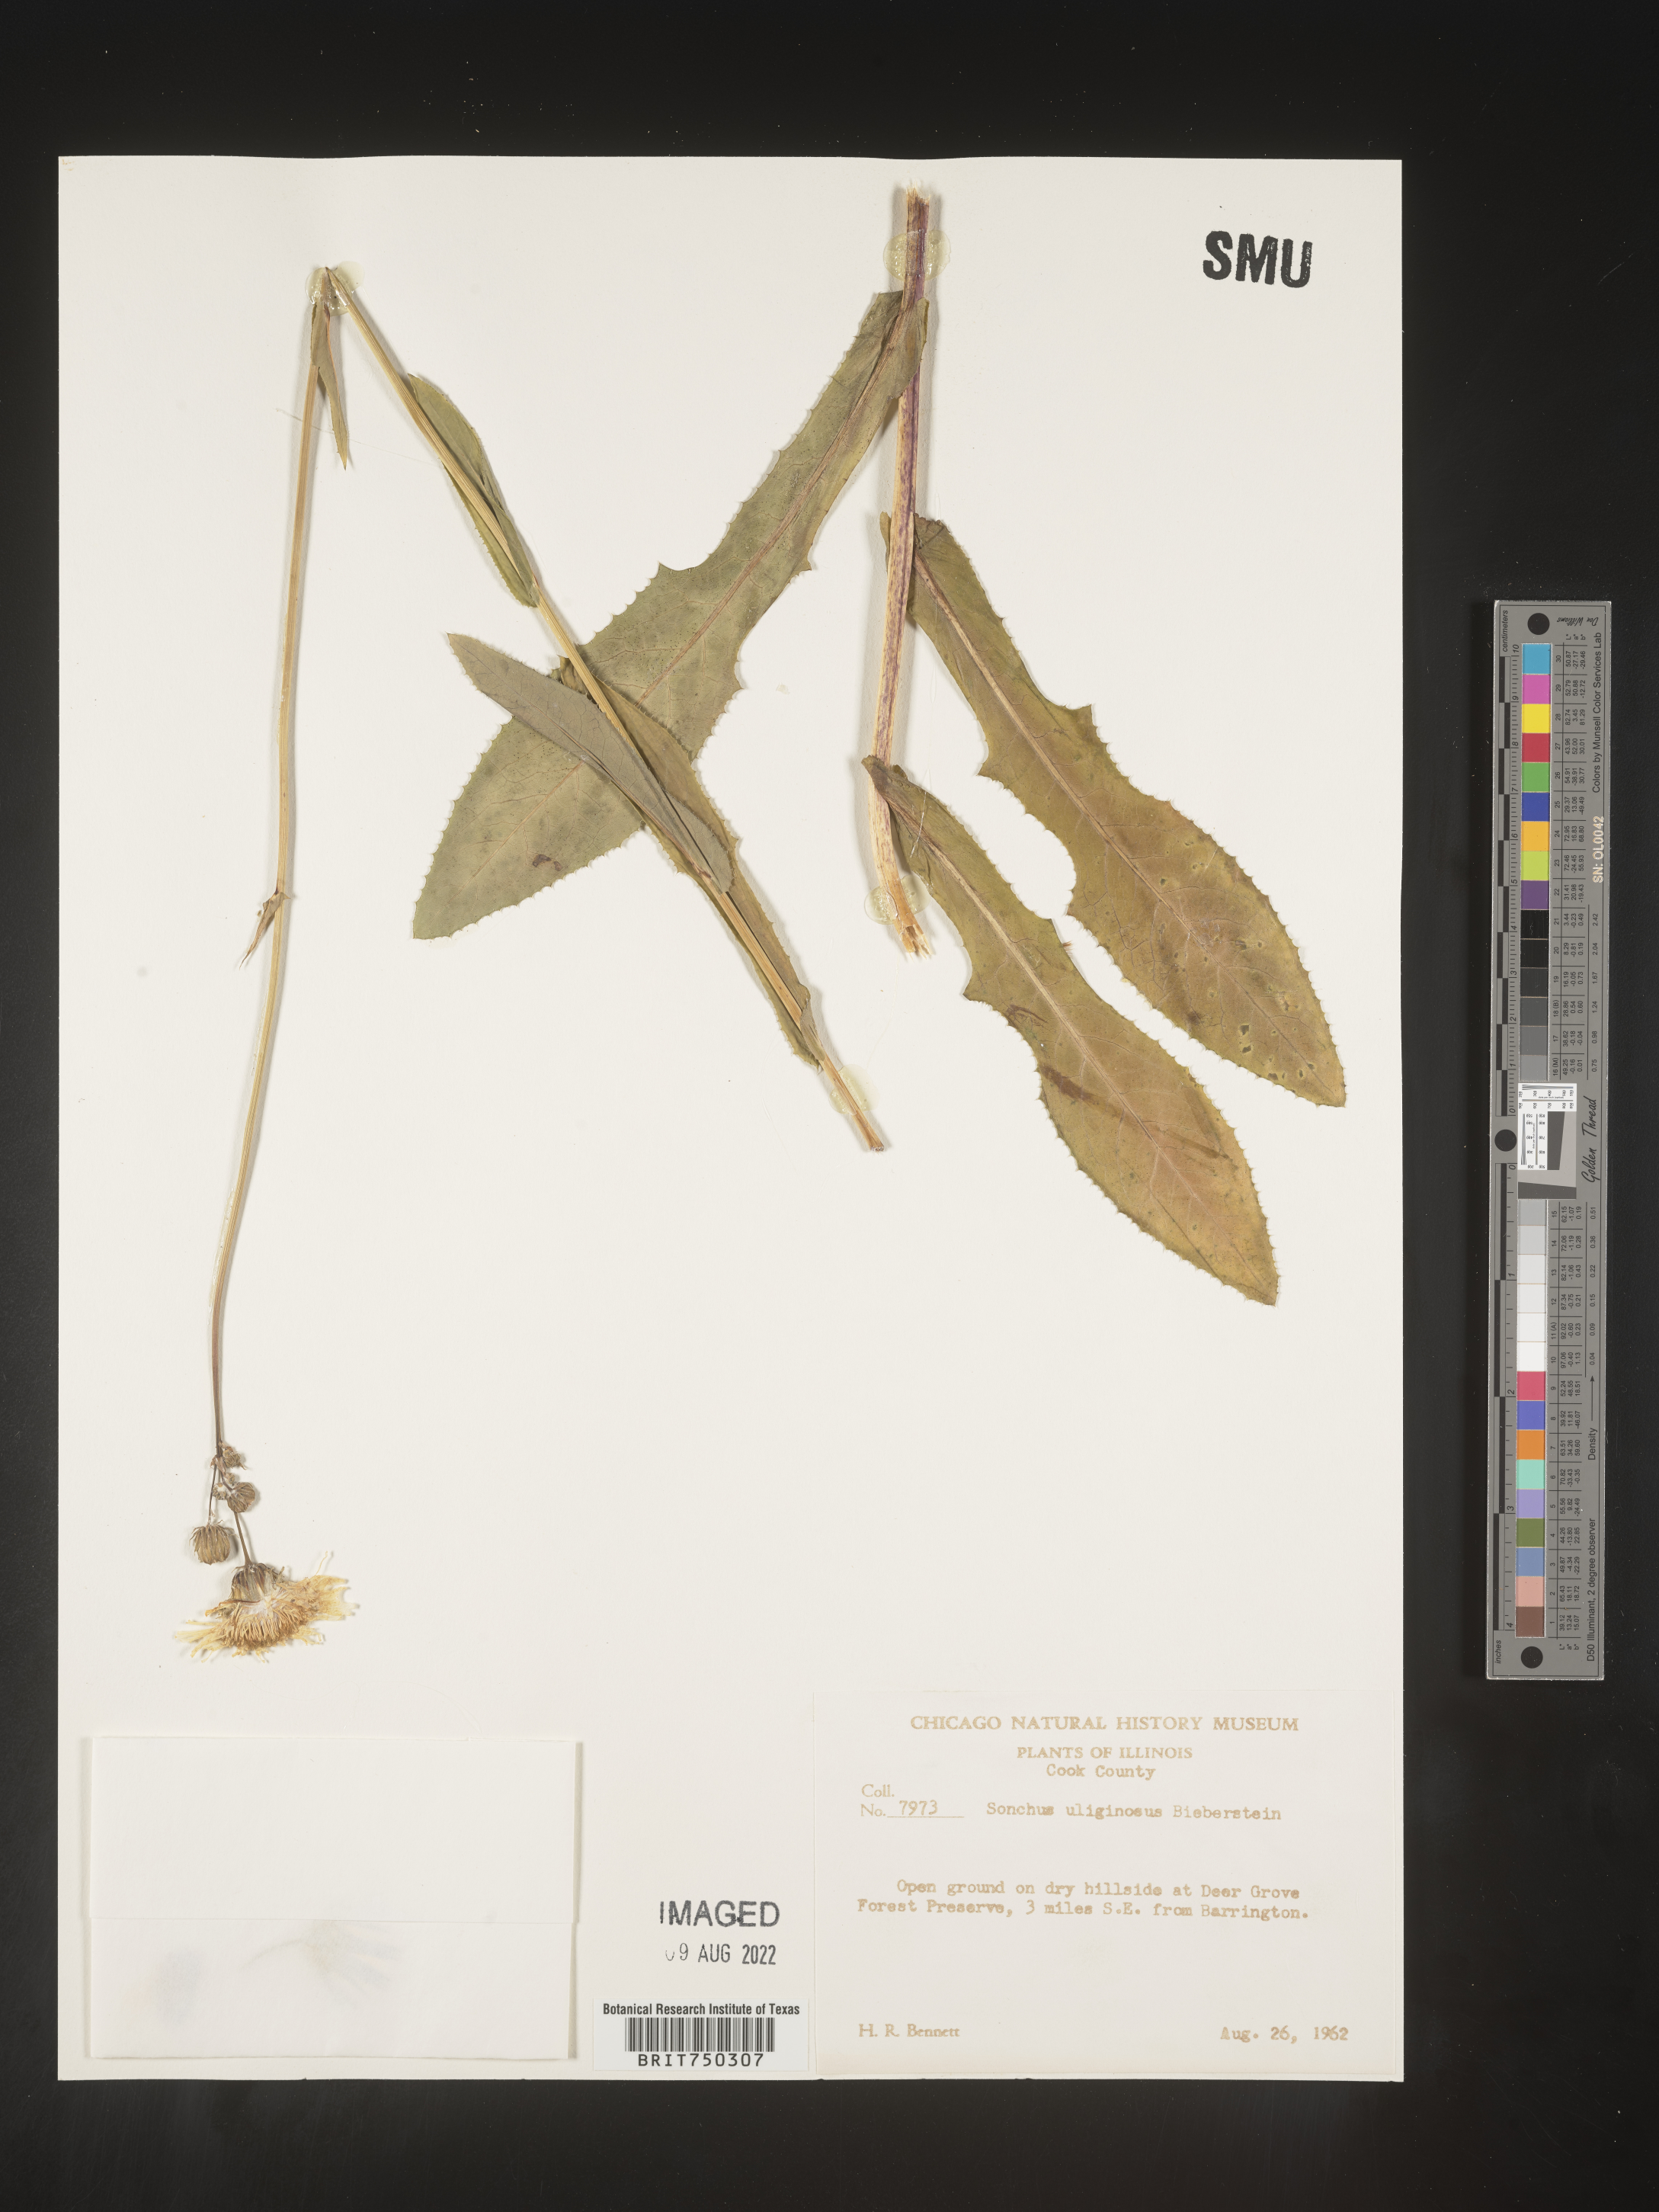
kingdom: Plantae
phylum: Tracheophyta
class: Magnoliopsida
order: Asterales
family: Asteraceae
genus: Sonchus
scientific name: Sonchus arvensis
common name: Perennial sow-thistle
